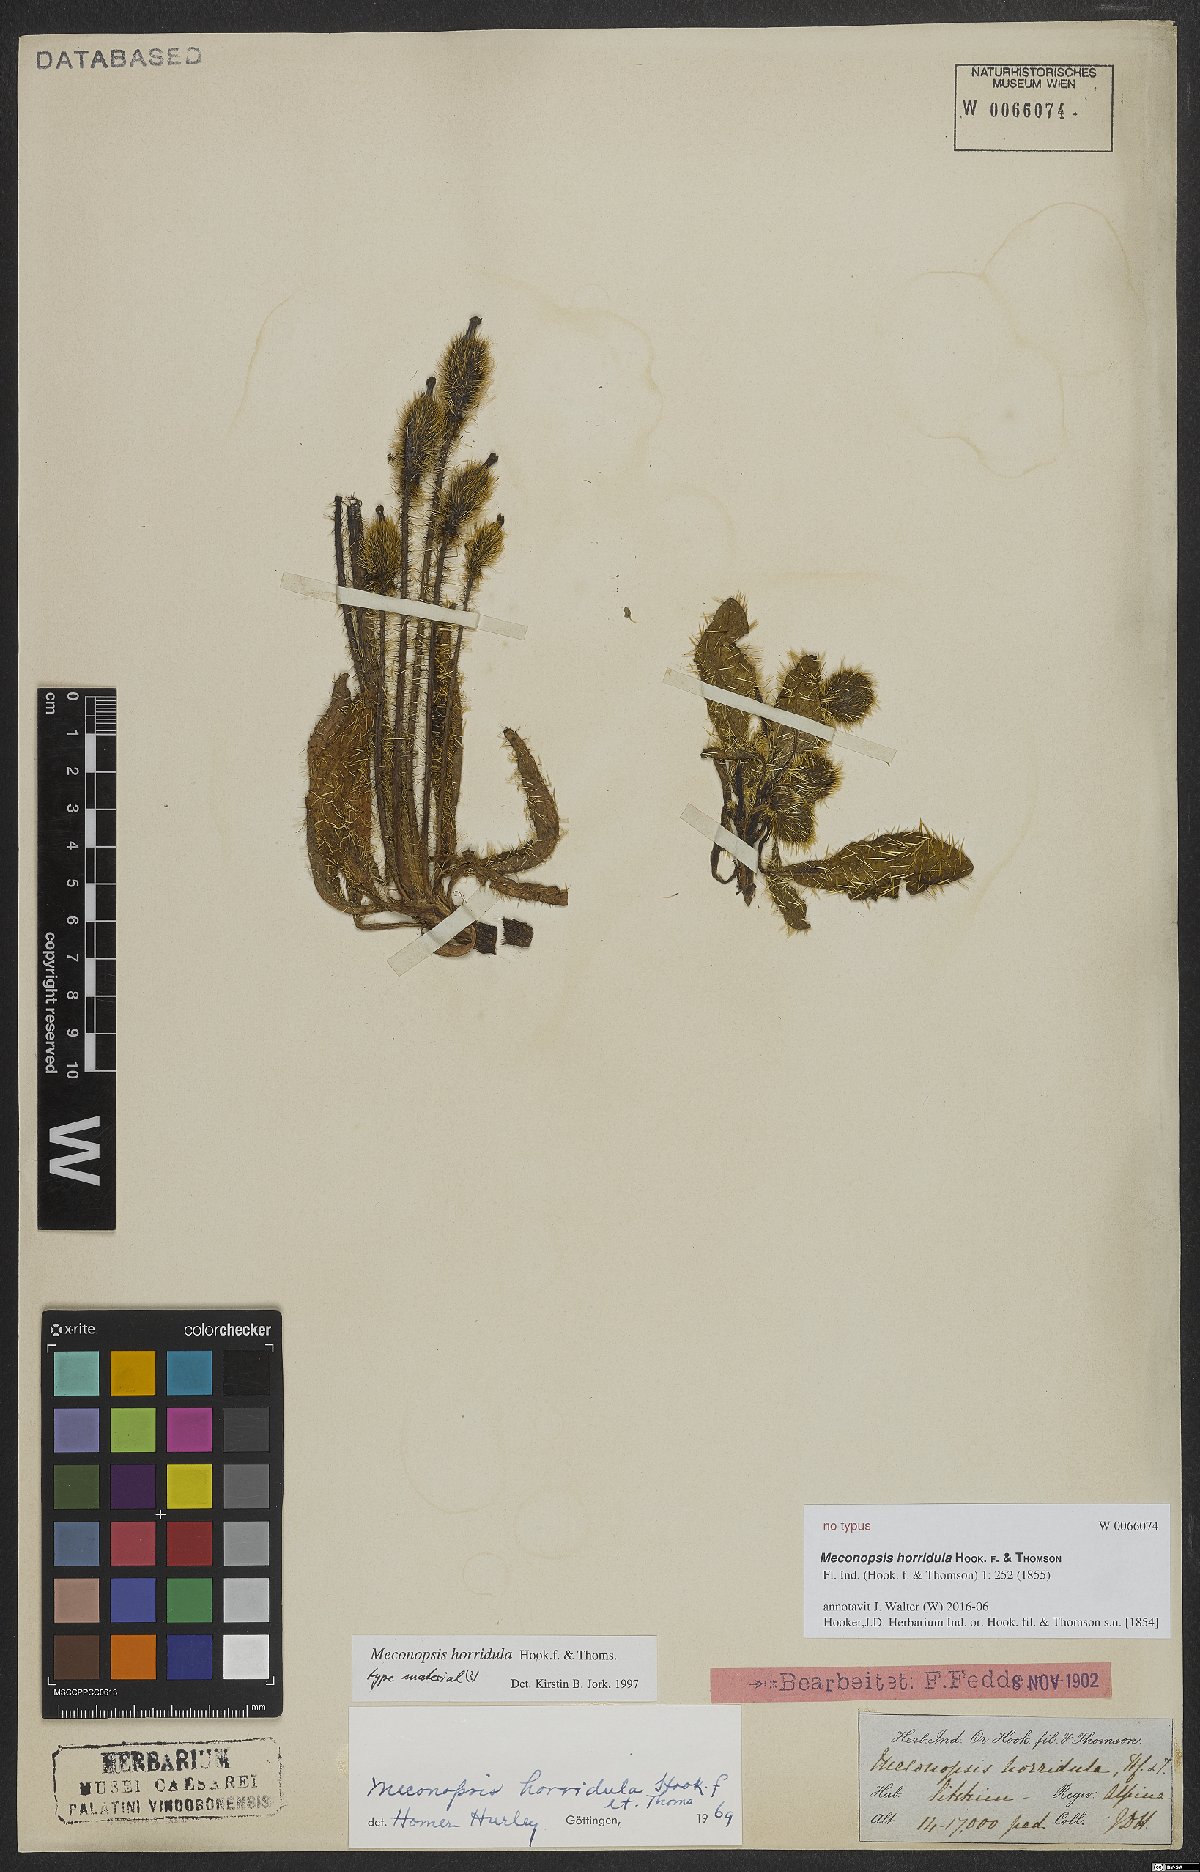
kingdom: Plantae
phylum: Tracheophyta
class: Magnoliopsida
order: Ranunculales
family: Papaveraceae
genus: Meconopsis
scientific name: Meconopsis horridula
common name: Prickly blue-poppy
